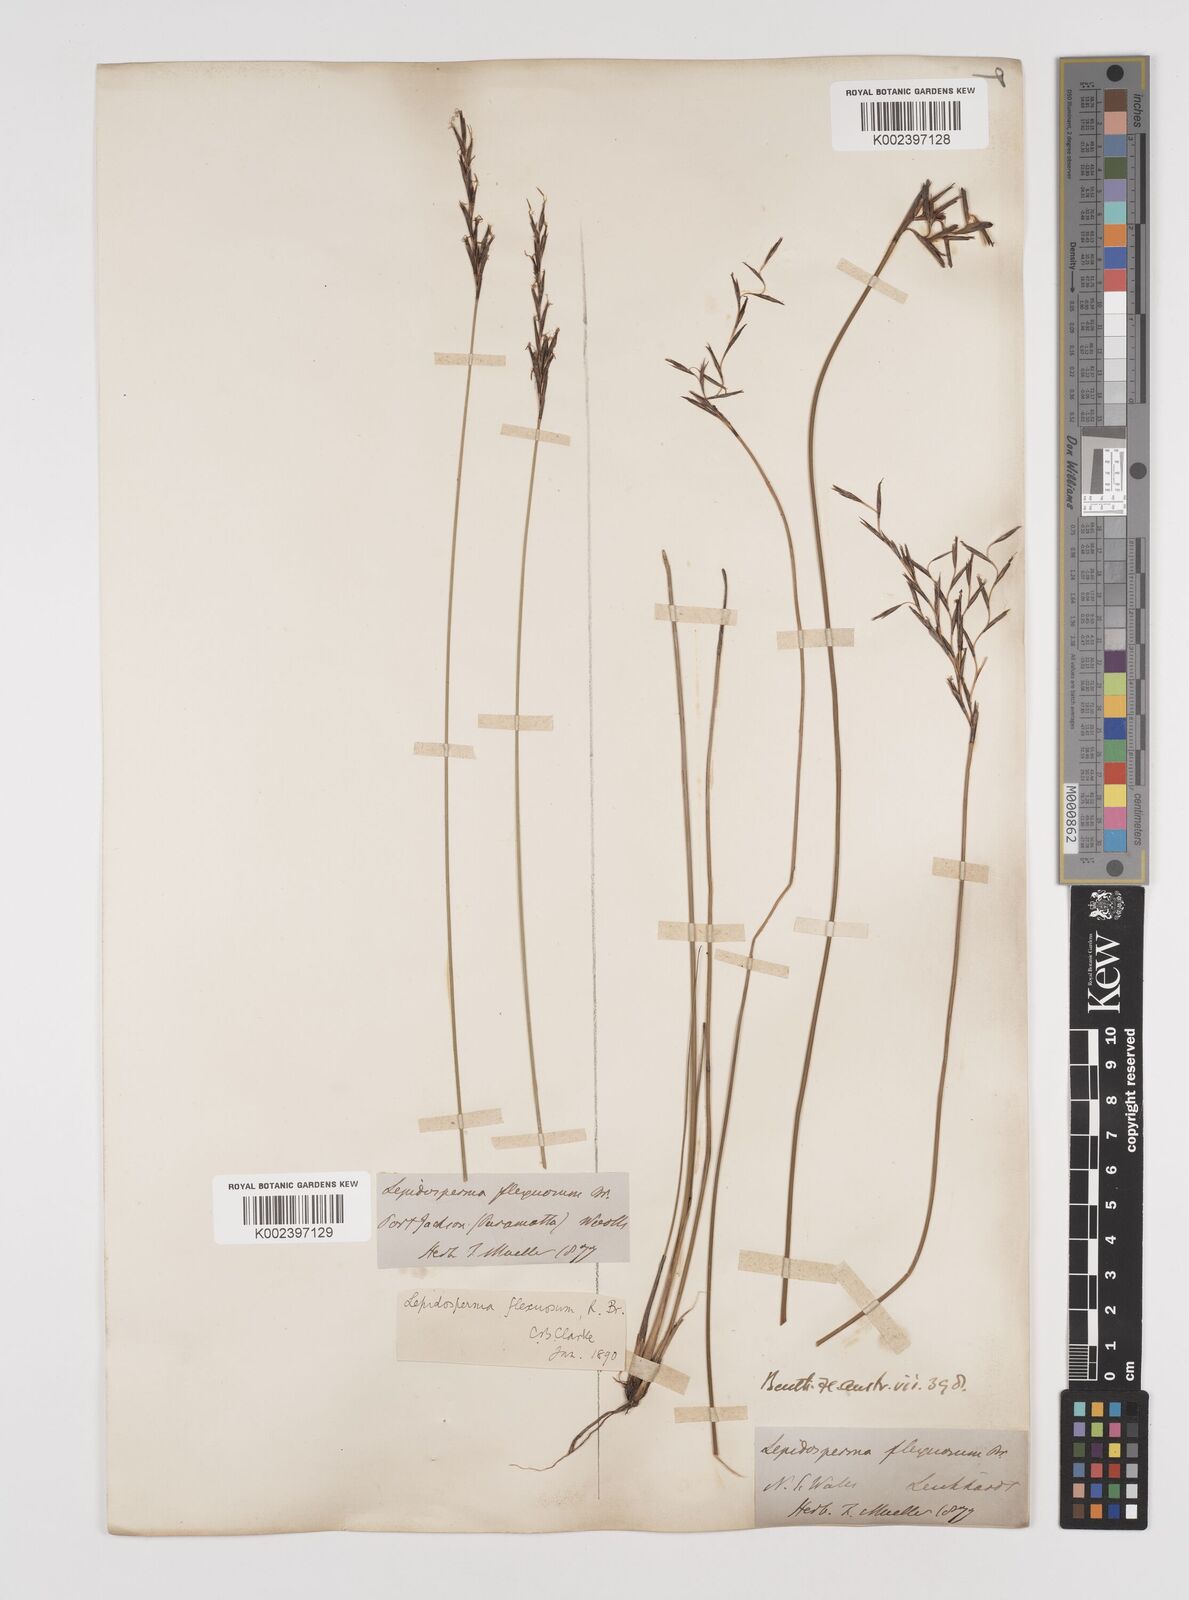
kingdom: Plantae
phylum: Tracheophyta
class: Liliopsida
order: Poales
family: Cyperaceae
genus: Lepidosperma
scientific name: Lepidosperma flexuosum
